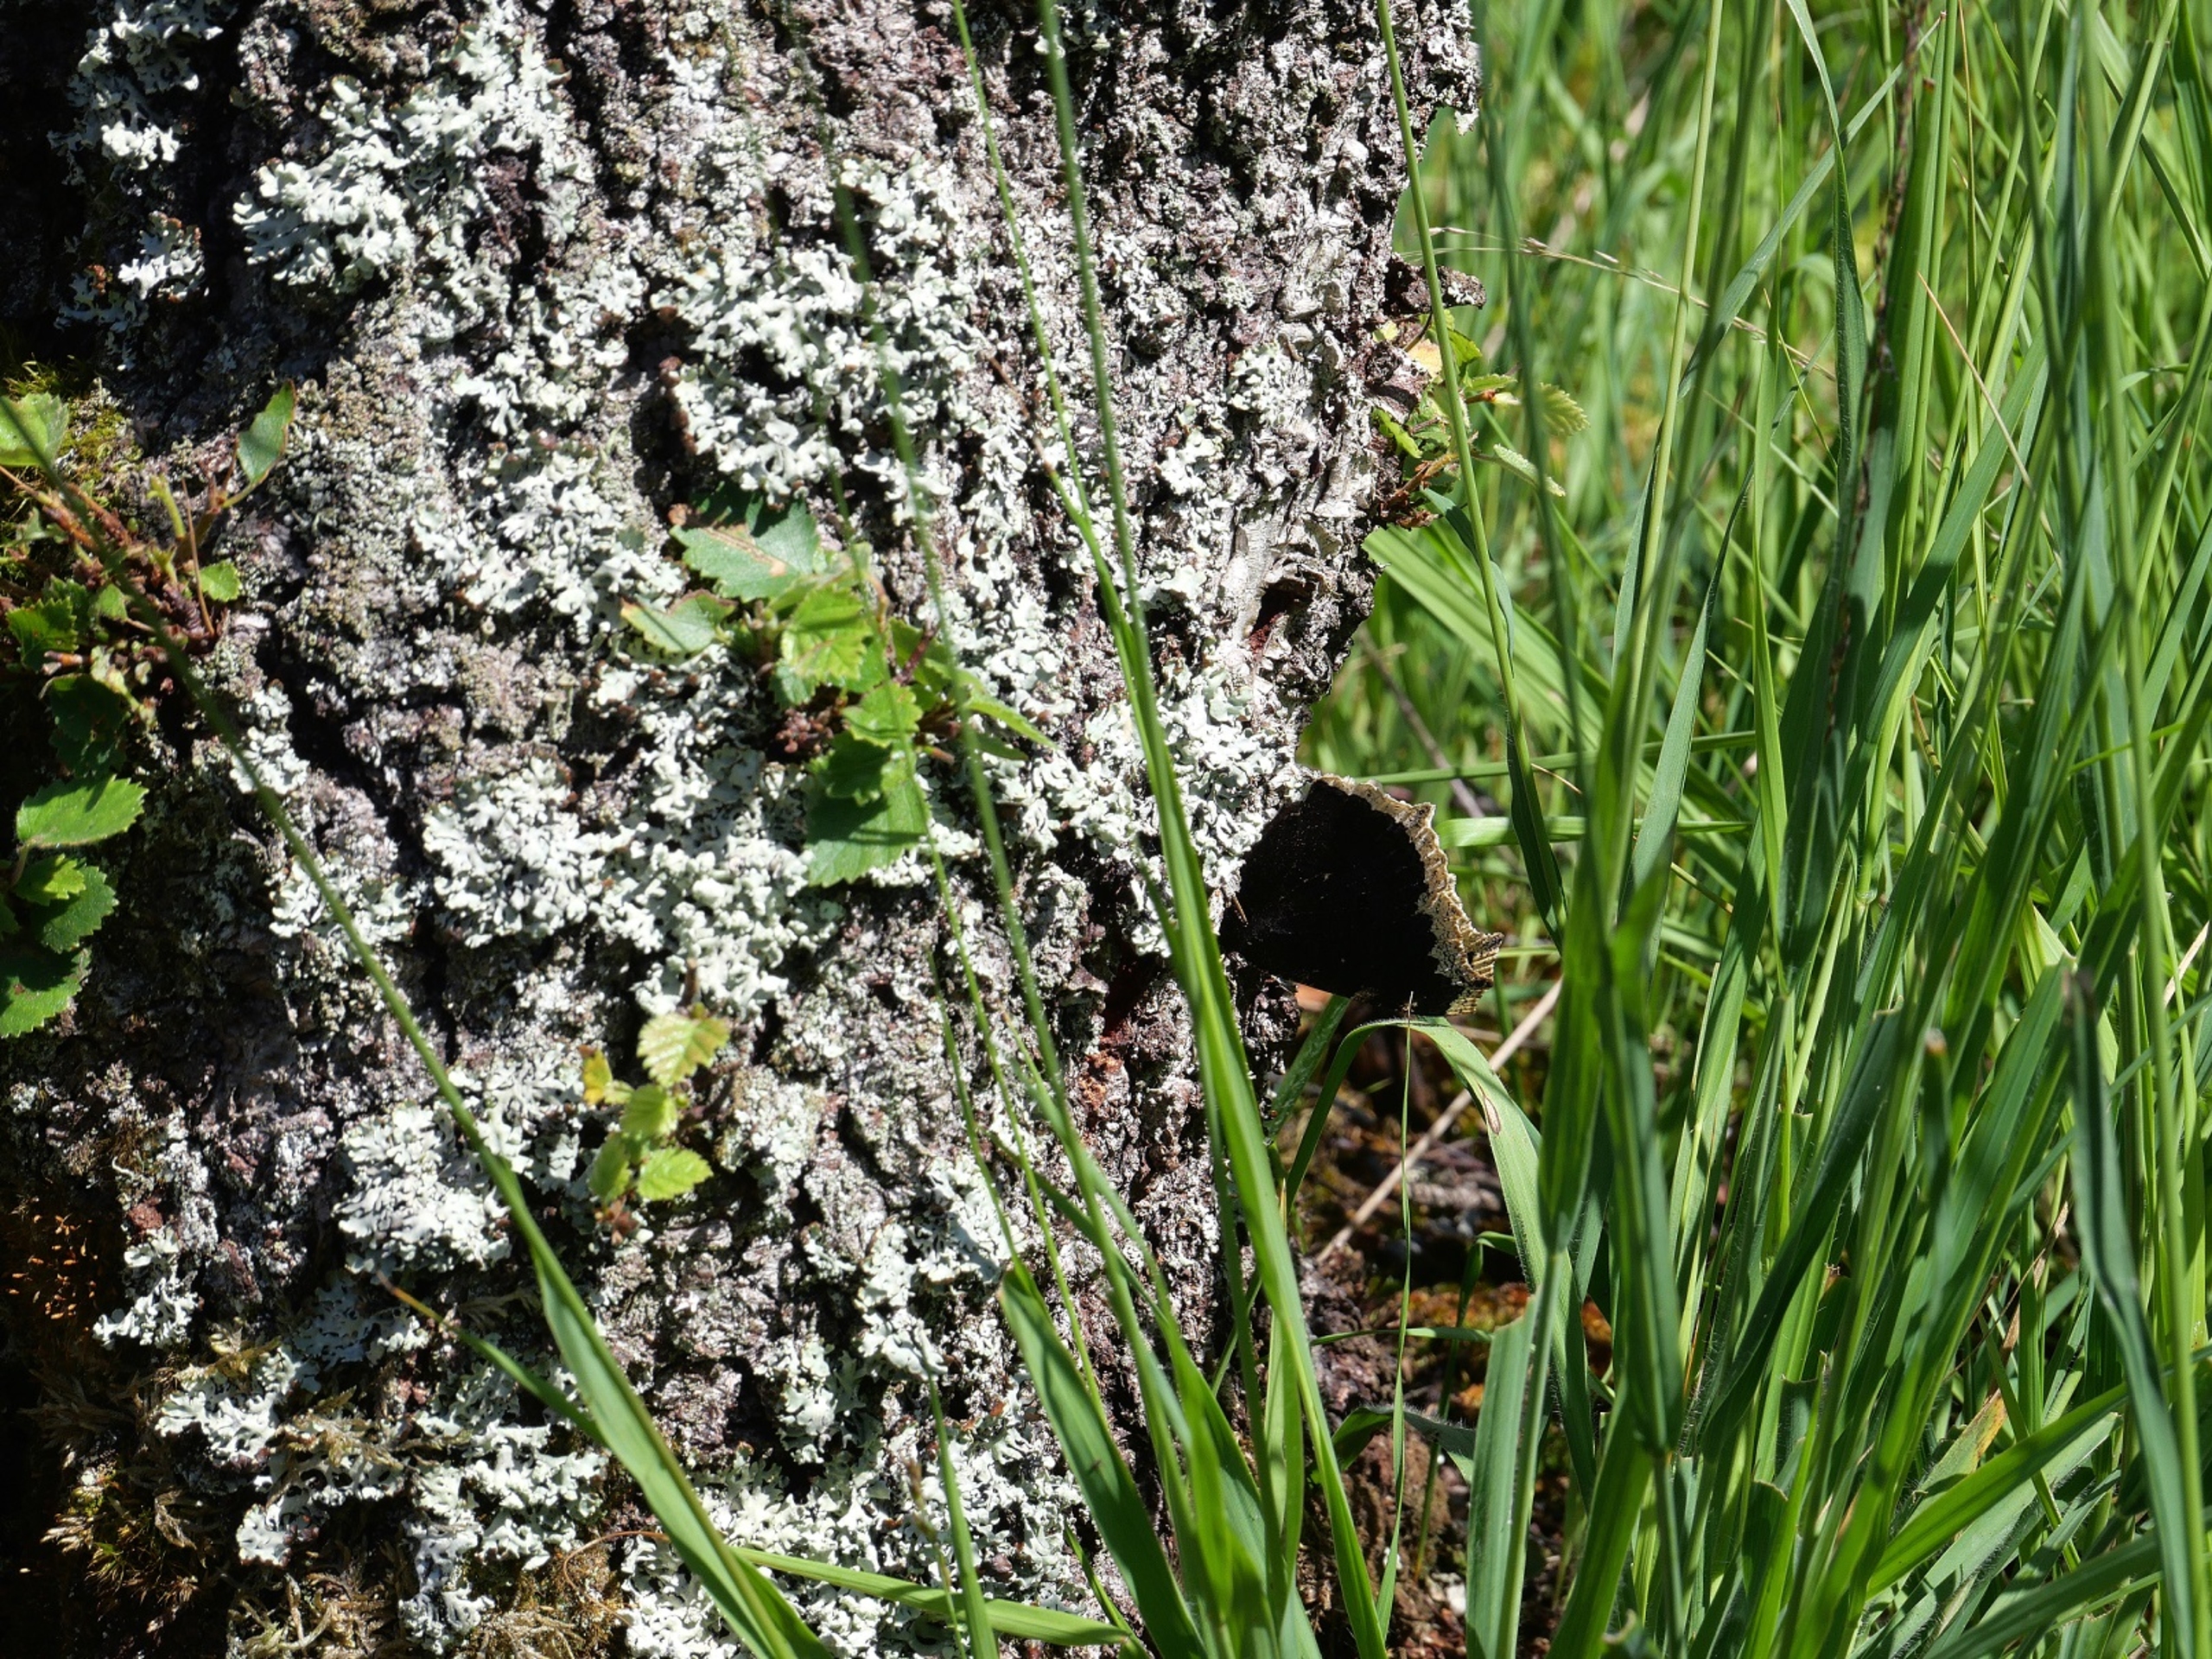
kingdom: Animalia
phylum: Arthropoda
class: Insecta
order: Lepidoptera
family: Nymphalidae
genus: Nymphalis
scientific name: Nymphalis antiopa
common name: Sørgekåbe
